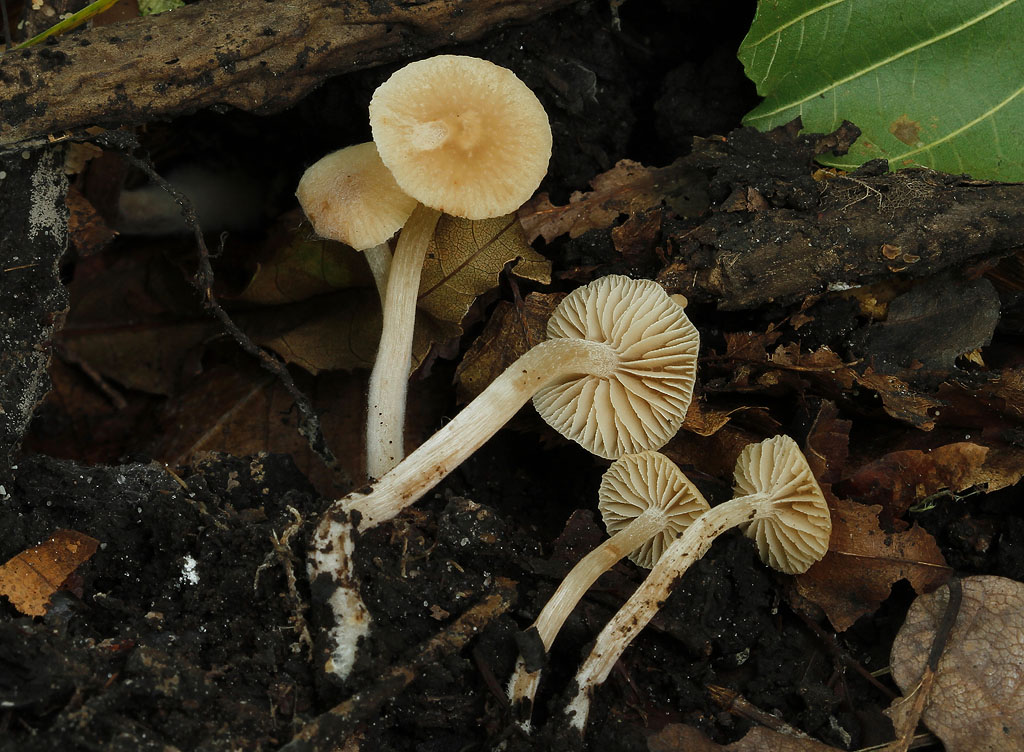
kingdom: Fungi
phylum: Basidiomycota
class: Agaricomycetes
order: Agaricales
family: Hymenogastraceae
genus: Naucoria
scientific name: Naucoria escharioides
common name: lys elle-knaphat
